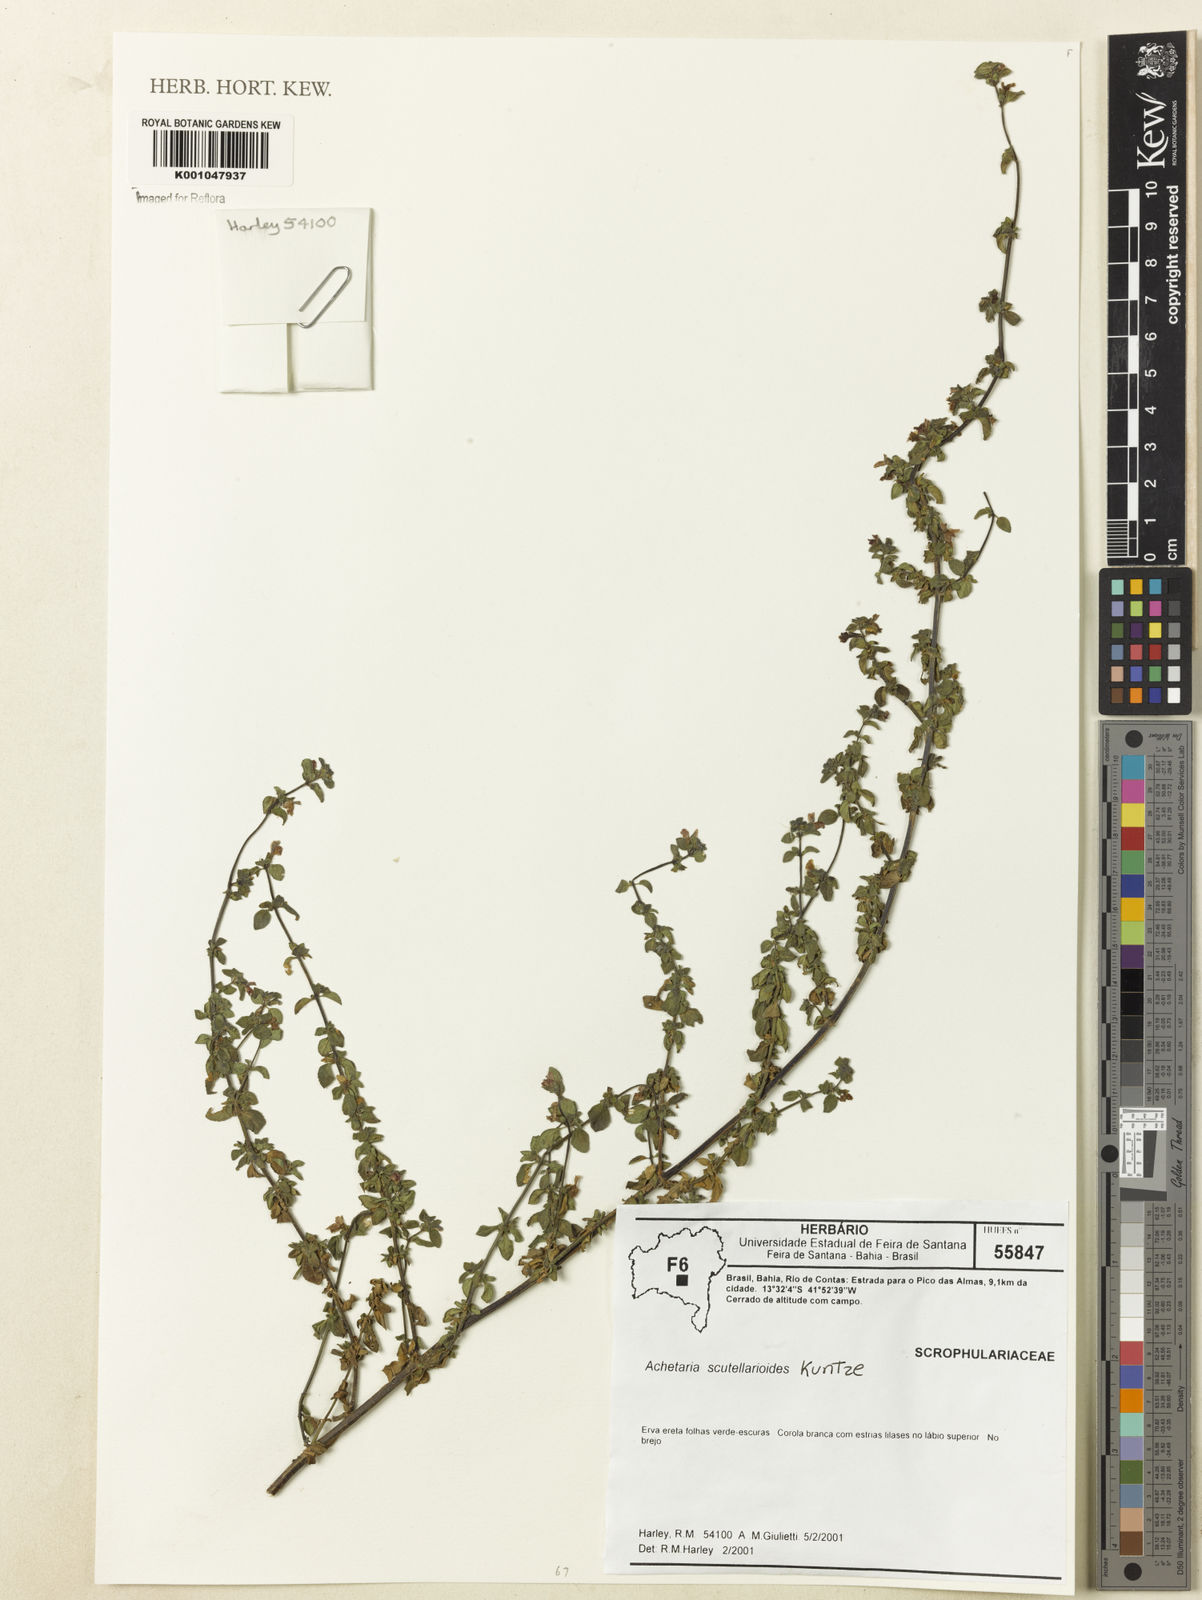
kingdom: Plantae
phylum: Tracheophyta
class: Magnoliopsida
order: Lamiales
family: Plantaginaceae
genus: Matourea
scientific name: Matourea scutellarioides
